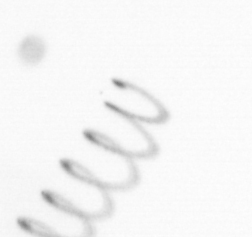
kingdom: Chromista
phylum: Ochrophyta
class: Bacillariophyceae
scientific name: Bacillariophyceae
